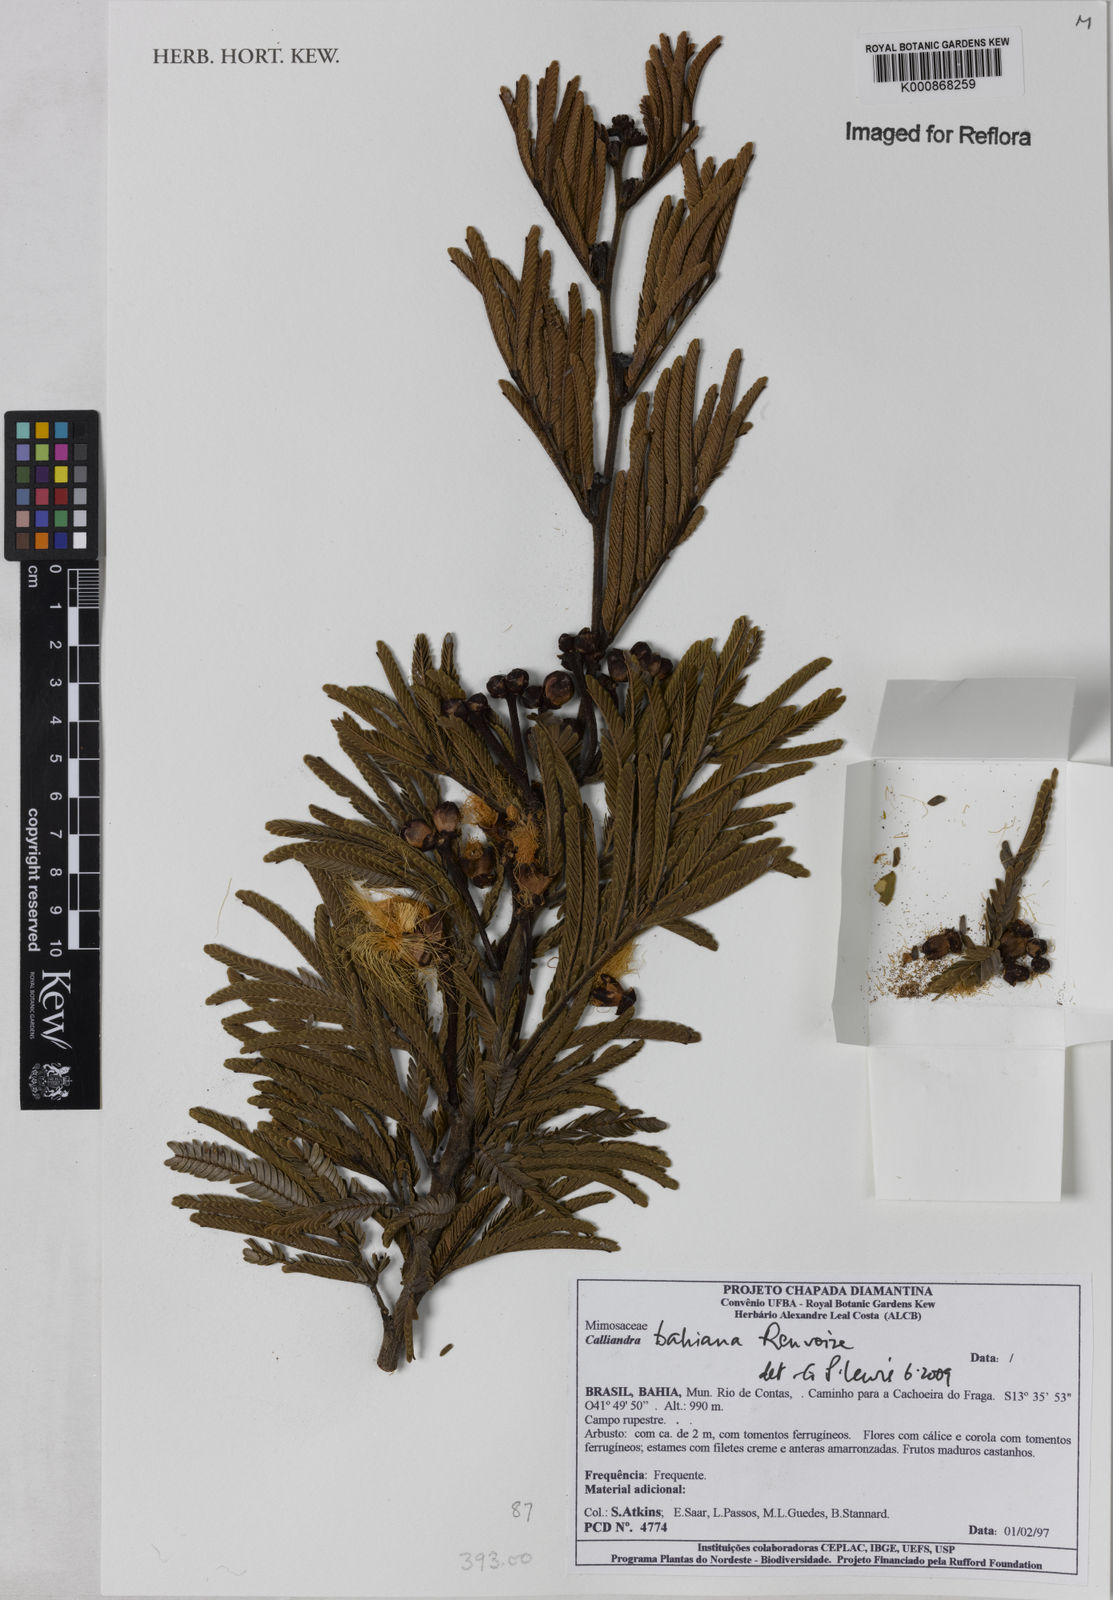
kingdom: Plantae
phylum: Tracheophyta
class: Magnoliopsida
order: Fabales
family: Fabaceae
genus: Calliandra
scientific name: Calliandra bahiana
